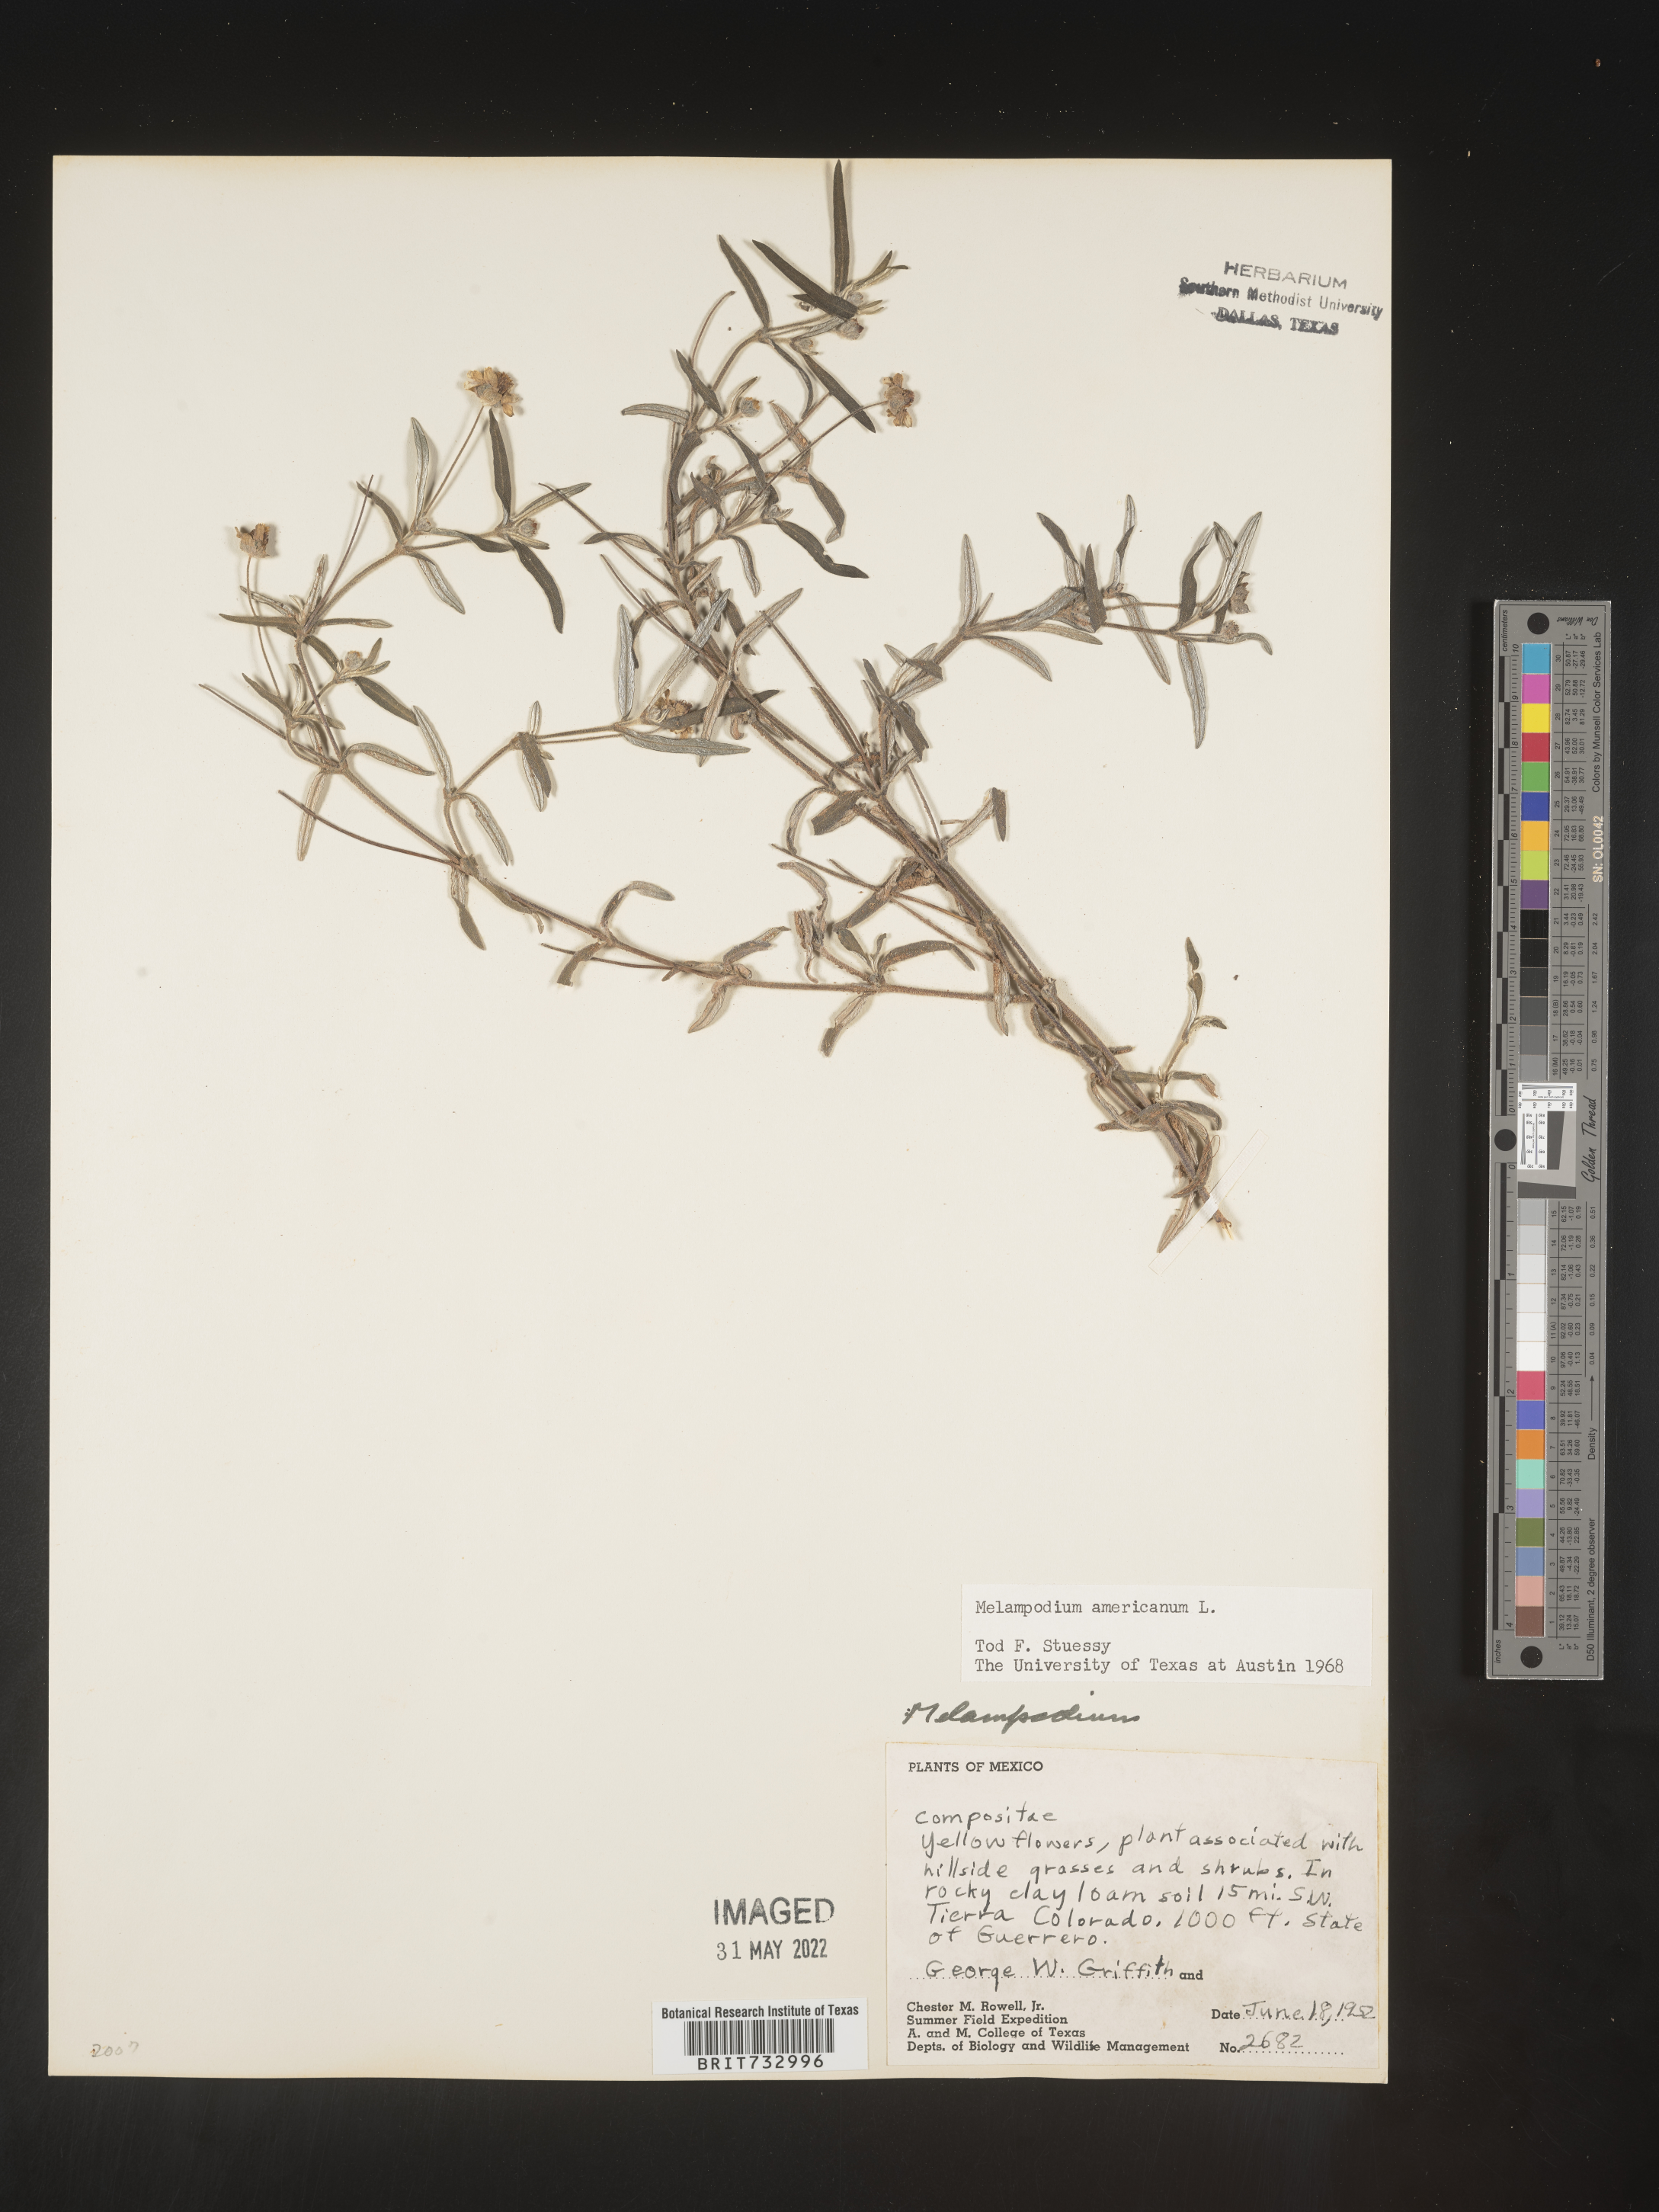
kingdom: Plantae
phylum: Tracheophyta
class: Magnoliopsida
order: Asterales
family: Asteraceae
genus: Melampodium
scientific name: Melampodium
